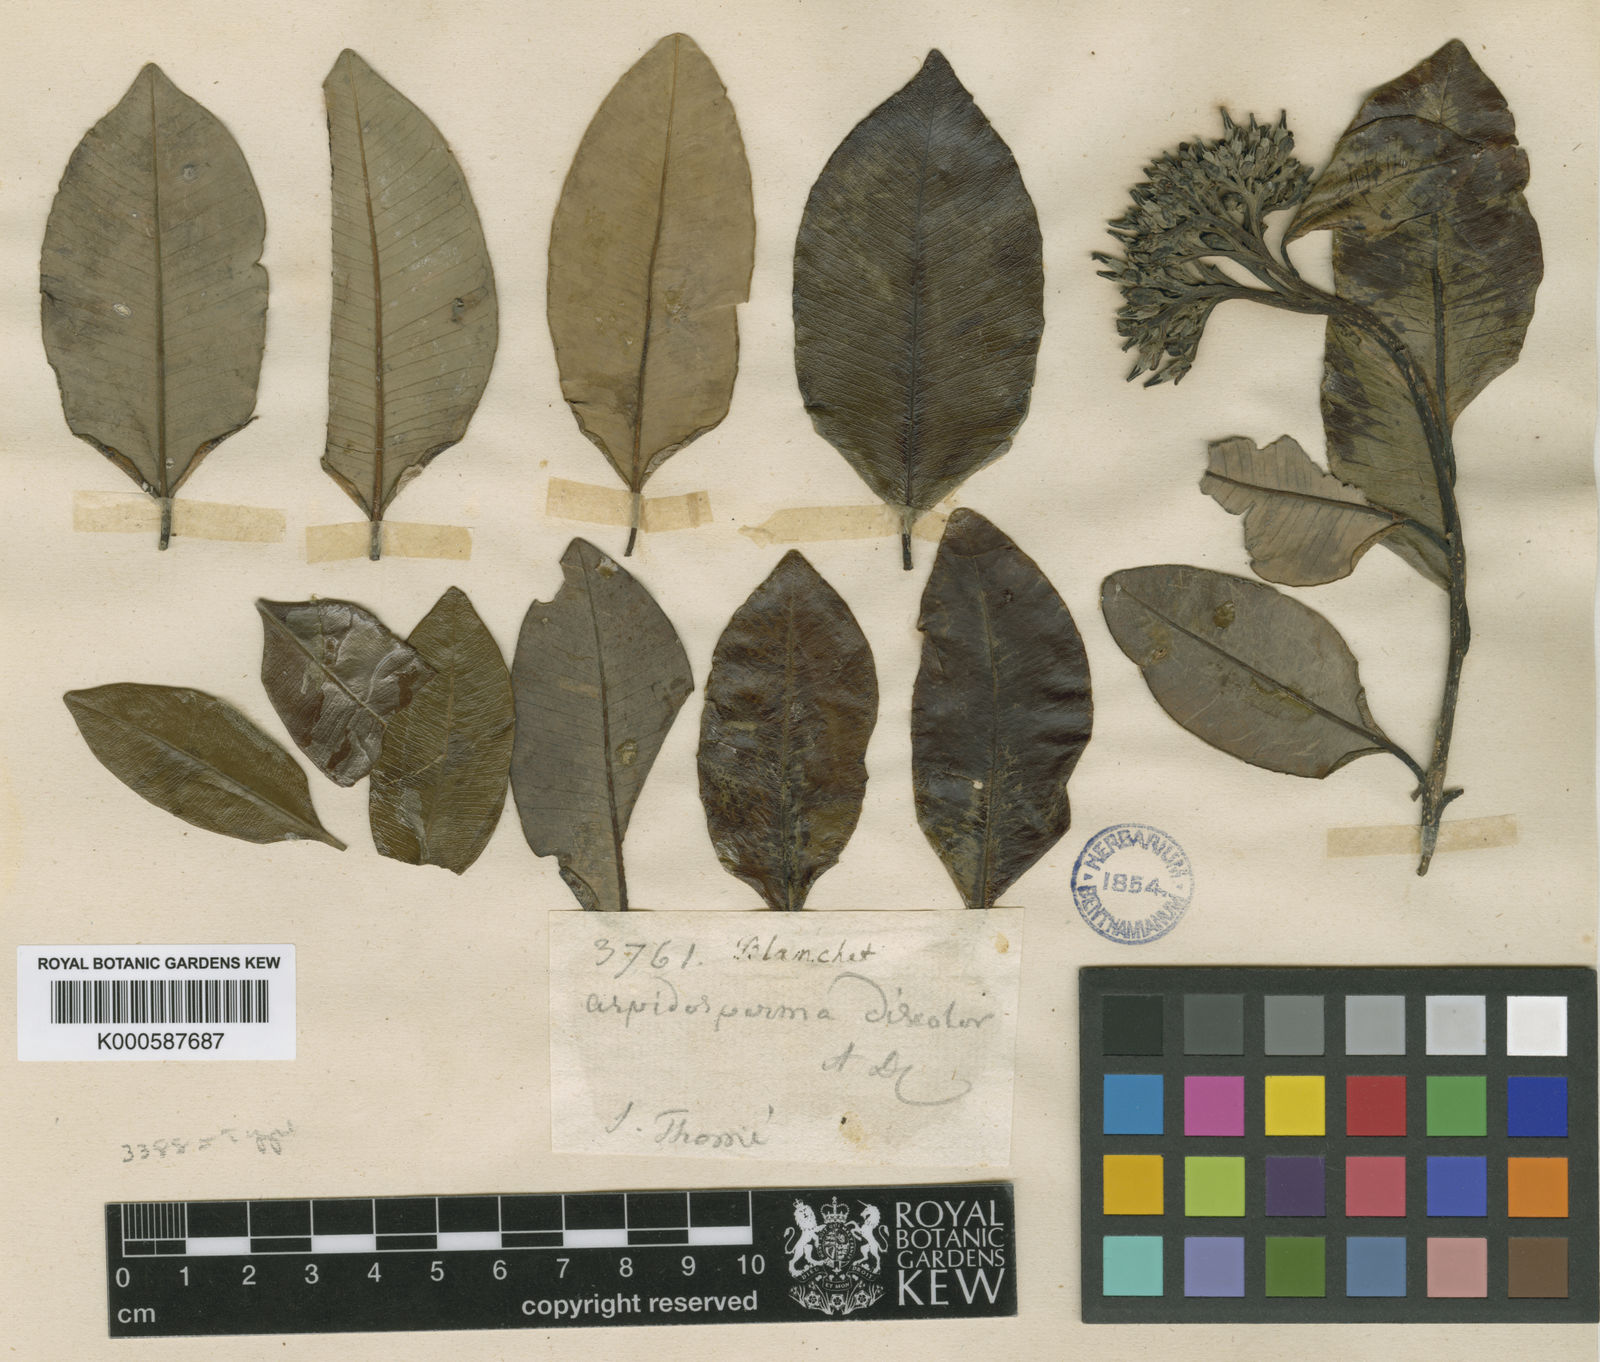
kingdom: Plantae
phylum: Tracheophyta
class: Magnoliopsida
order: Gentianales
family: Apocynaceae
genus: Aspidosperma
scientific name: Aspidosperma discolor
